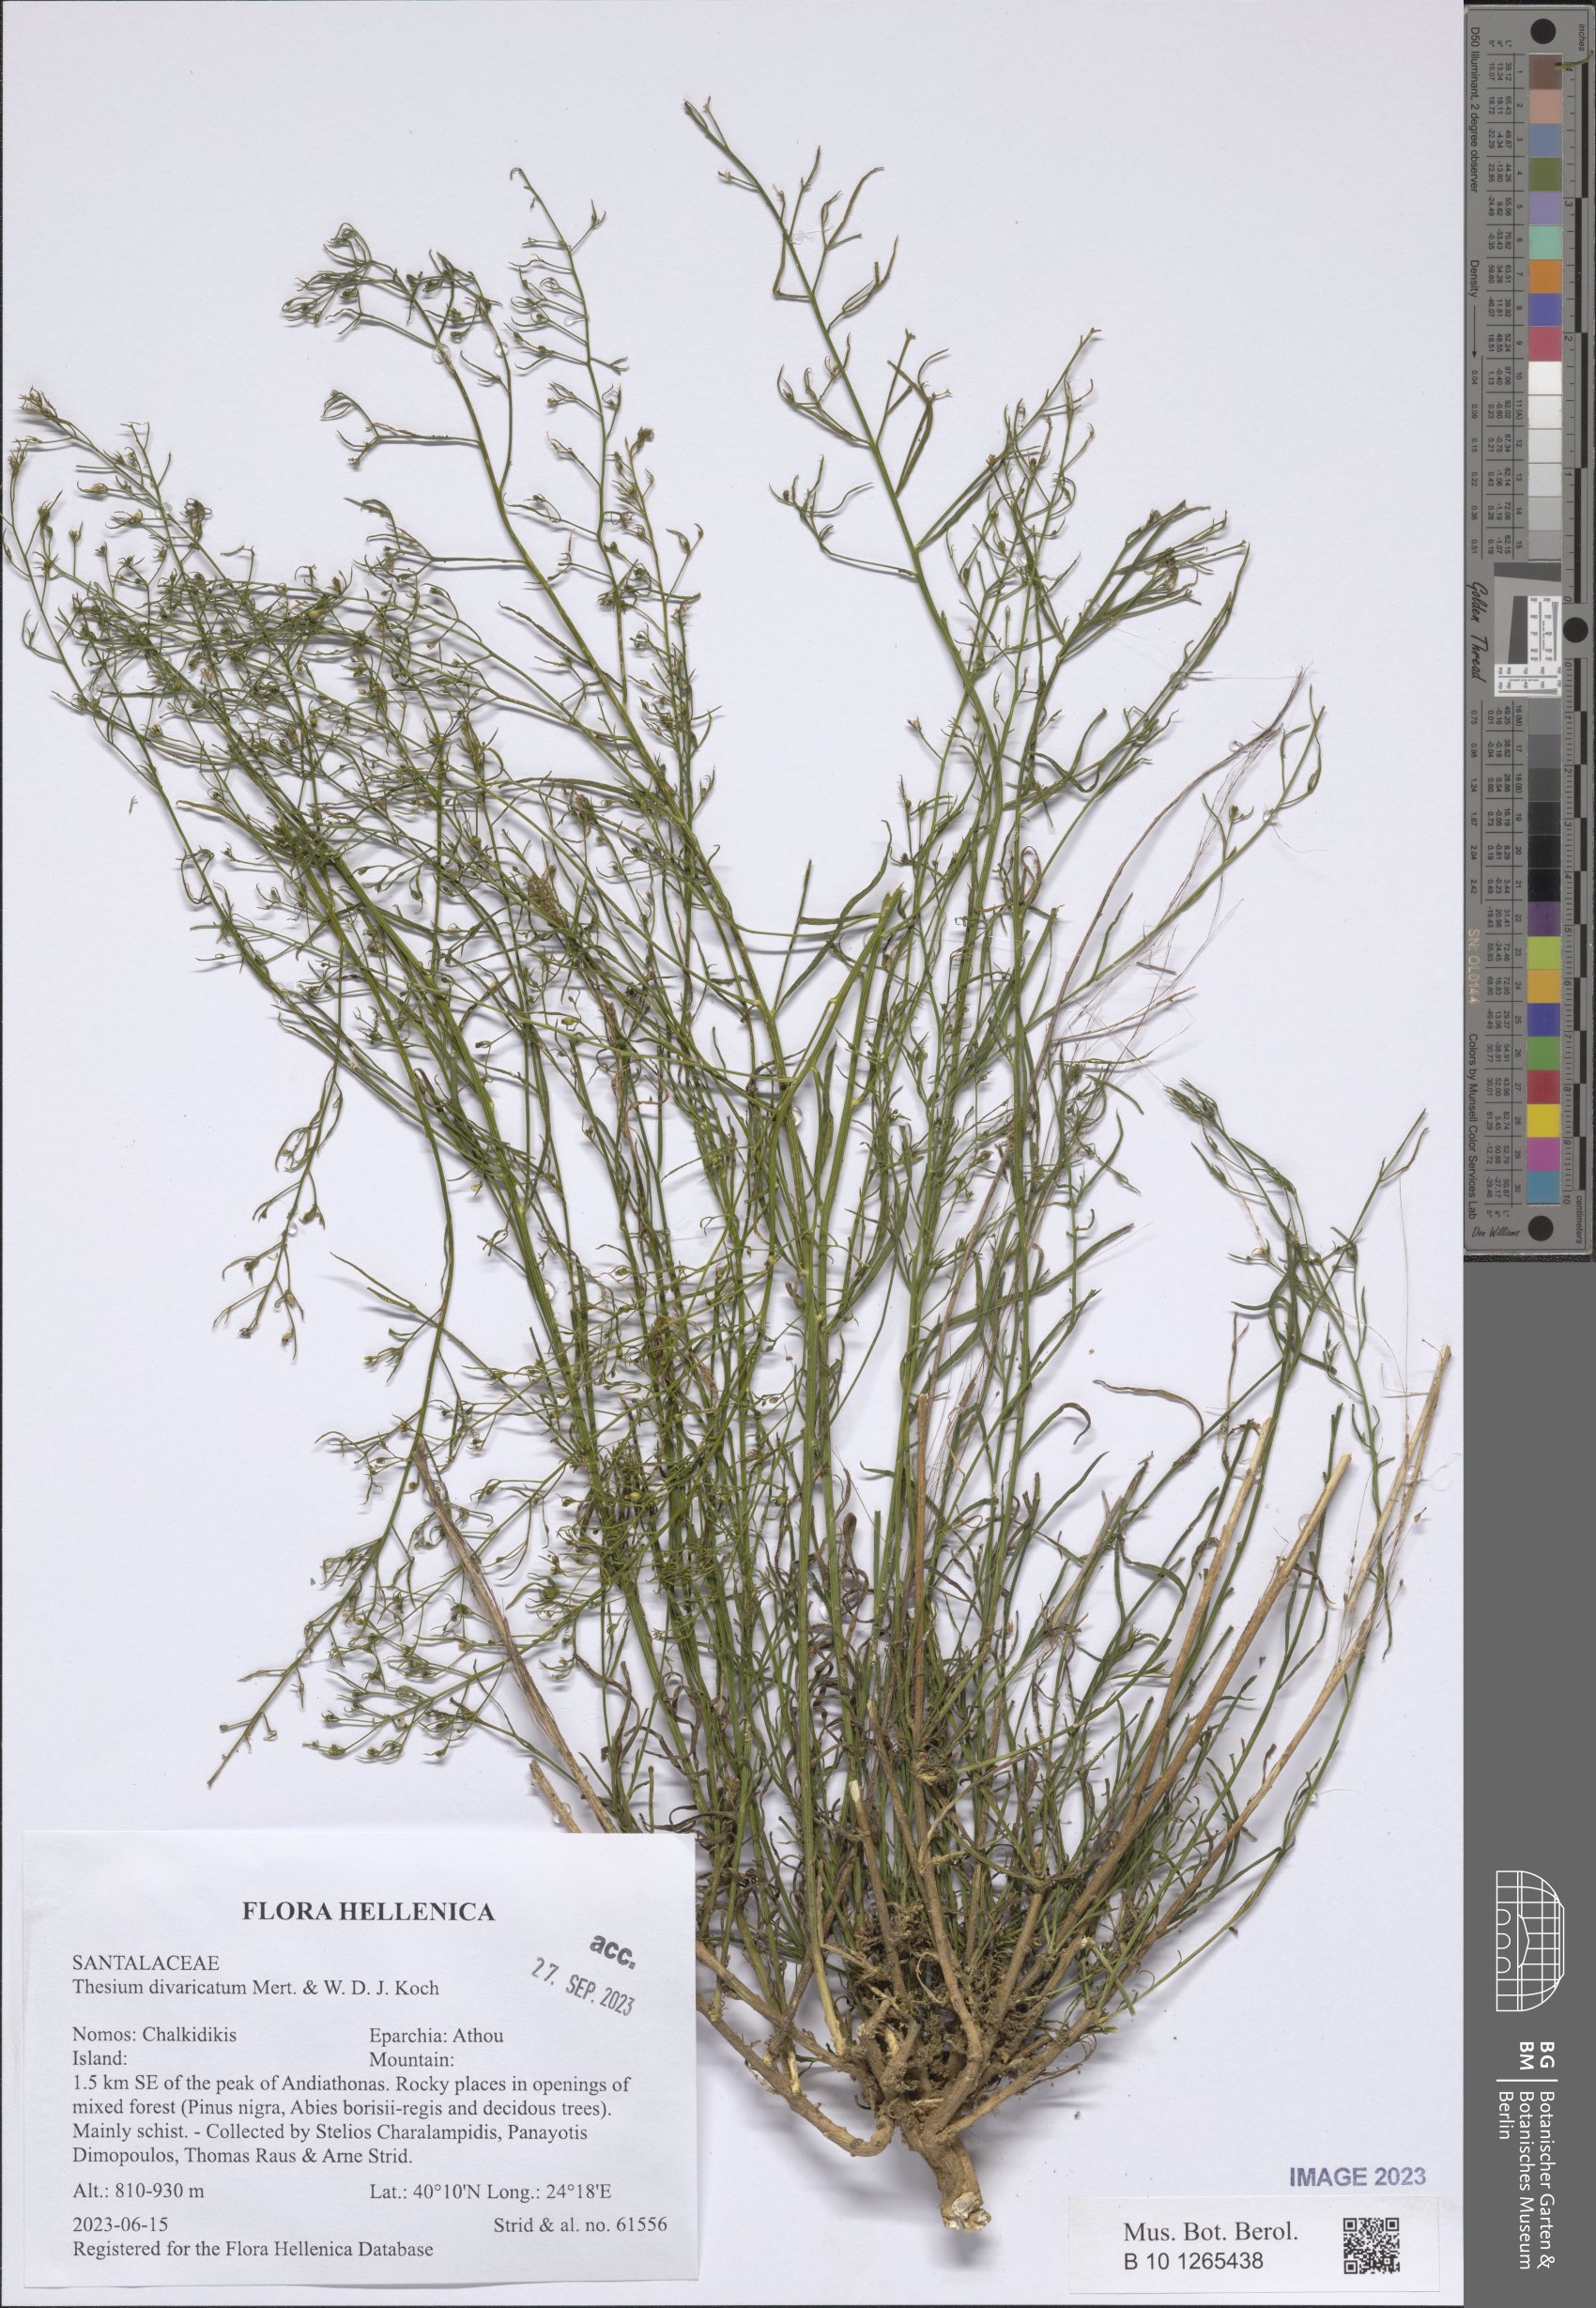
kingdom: Plantae
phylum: Tracheophyta
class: Magnoliopsida
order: Santalales
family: Thesiaceae
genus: Thesium
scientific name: Thesium divaricatum
